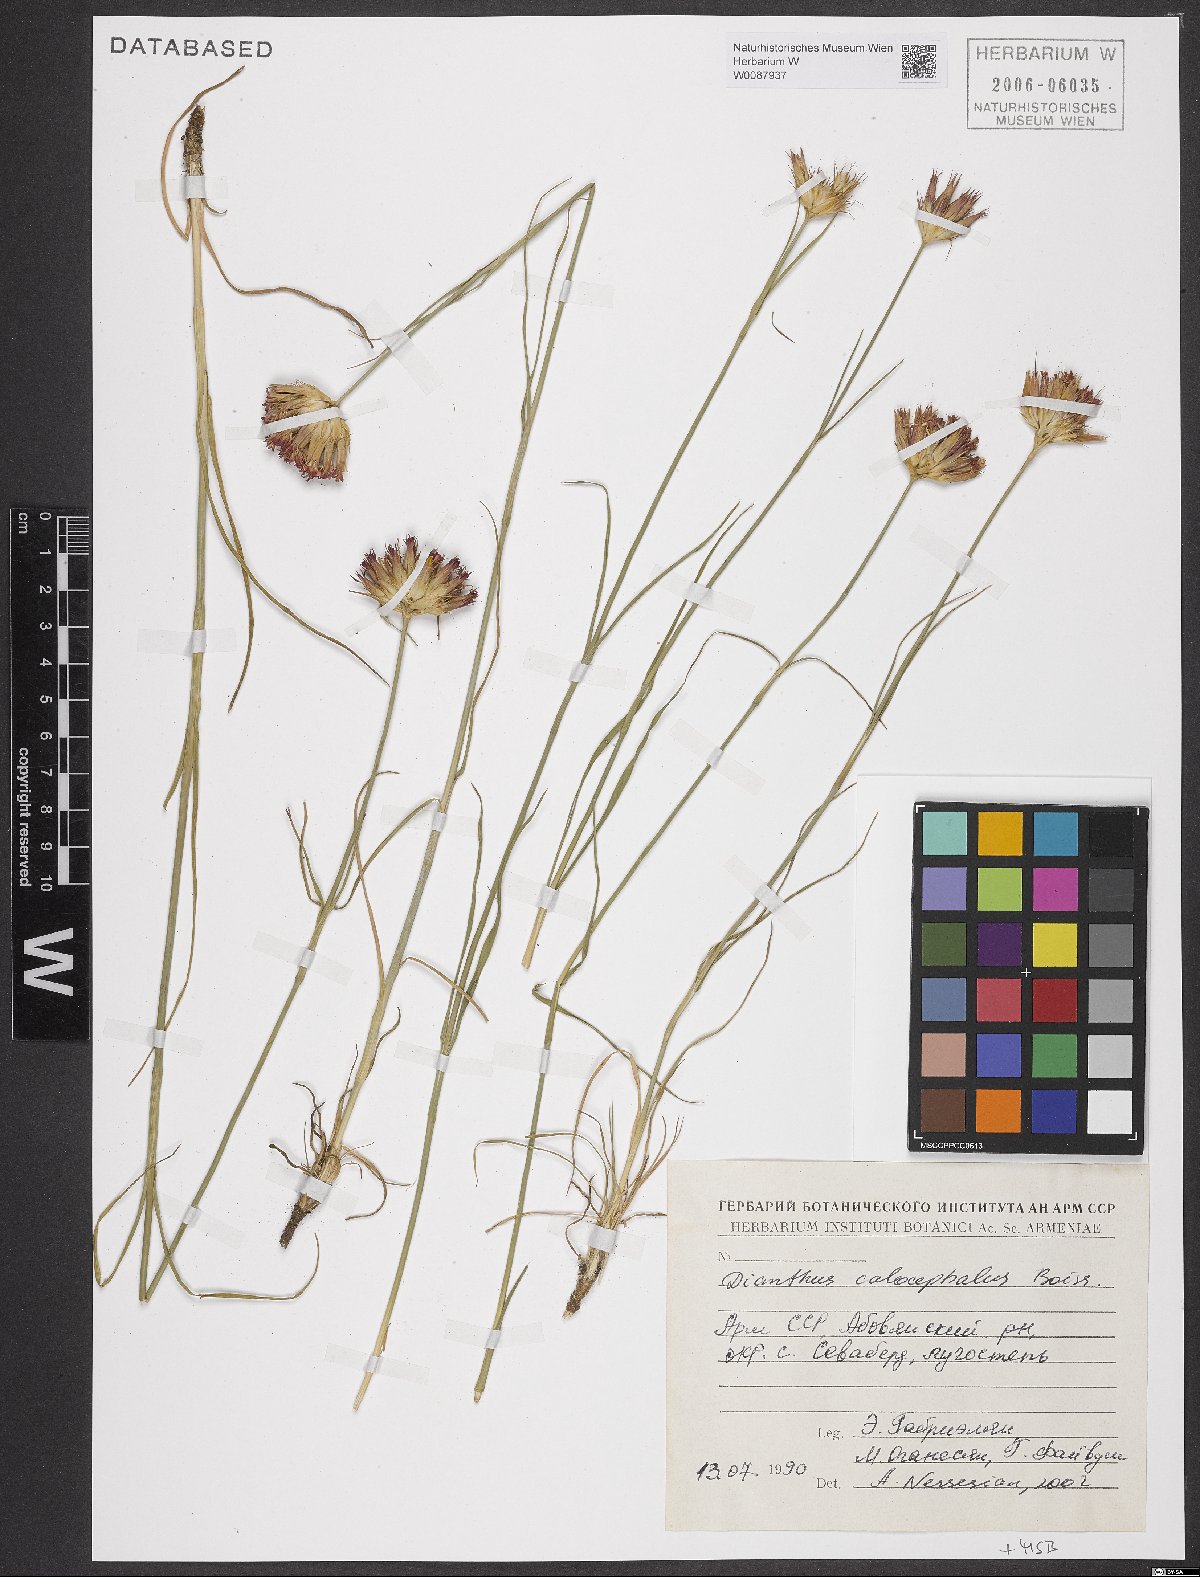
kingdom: Plantae
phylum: Tracheophyta
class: Magnoliopsida
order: Caryophyllales
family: Caryophyllaceae
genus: Dianthus
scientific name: Dianthus cruentus
